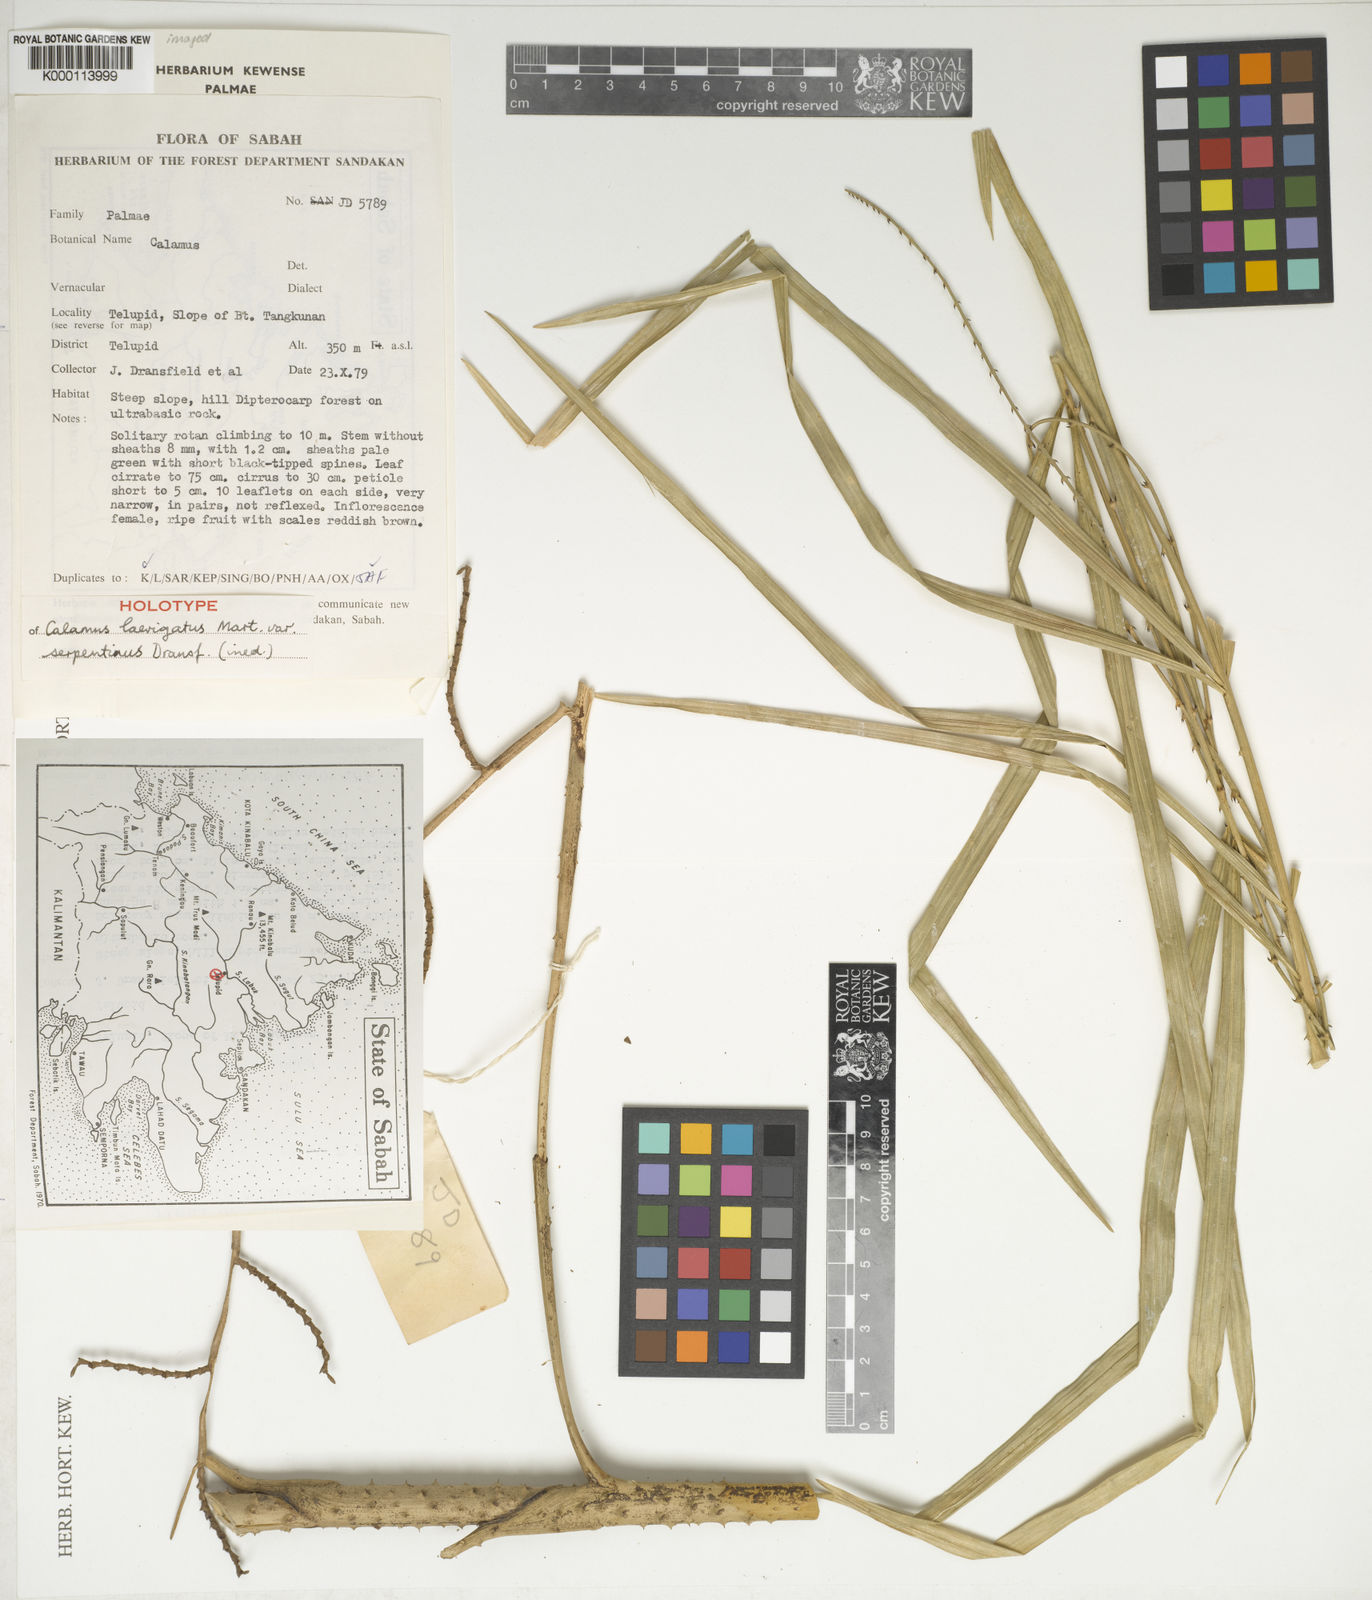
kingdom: Plantae
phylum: Tracheophyta
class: Liliopsida
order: Arecales
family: Arecaceae
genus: Calamus
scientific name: Calamus plicatus
